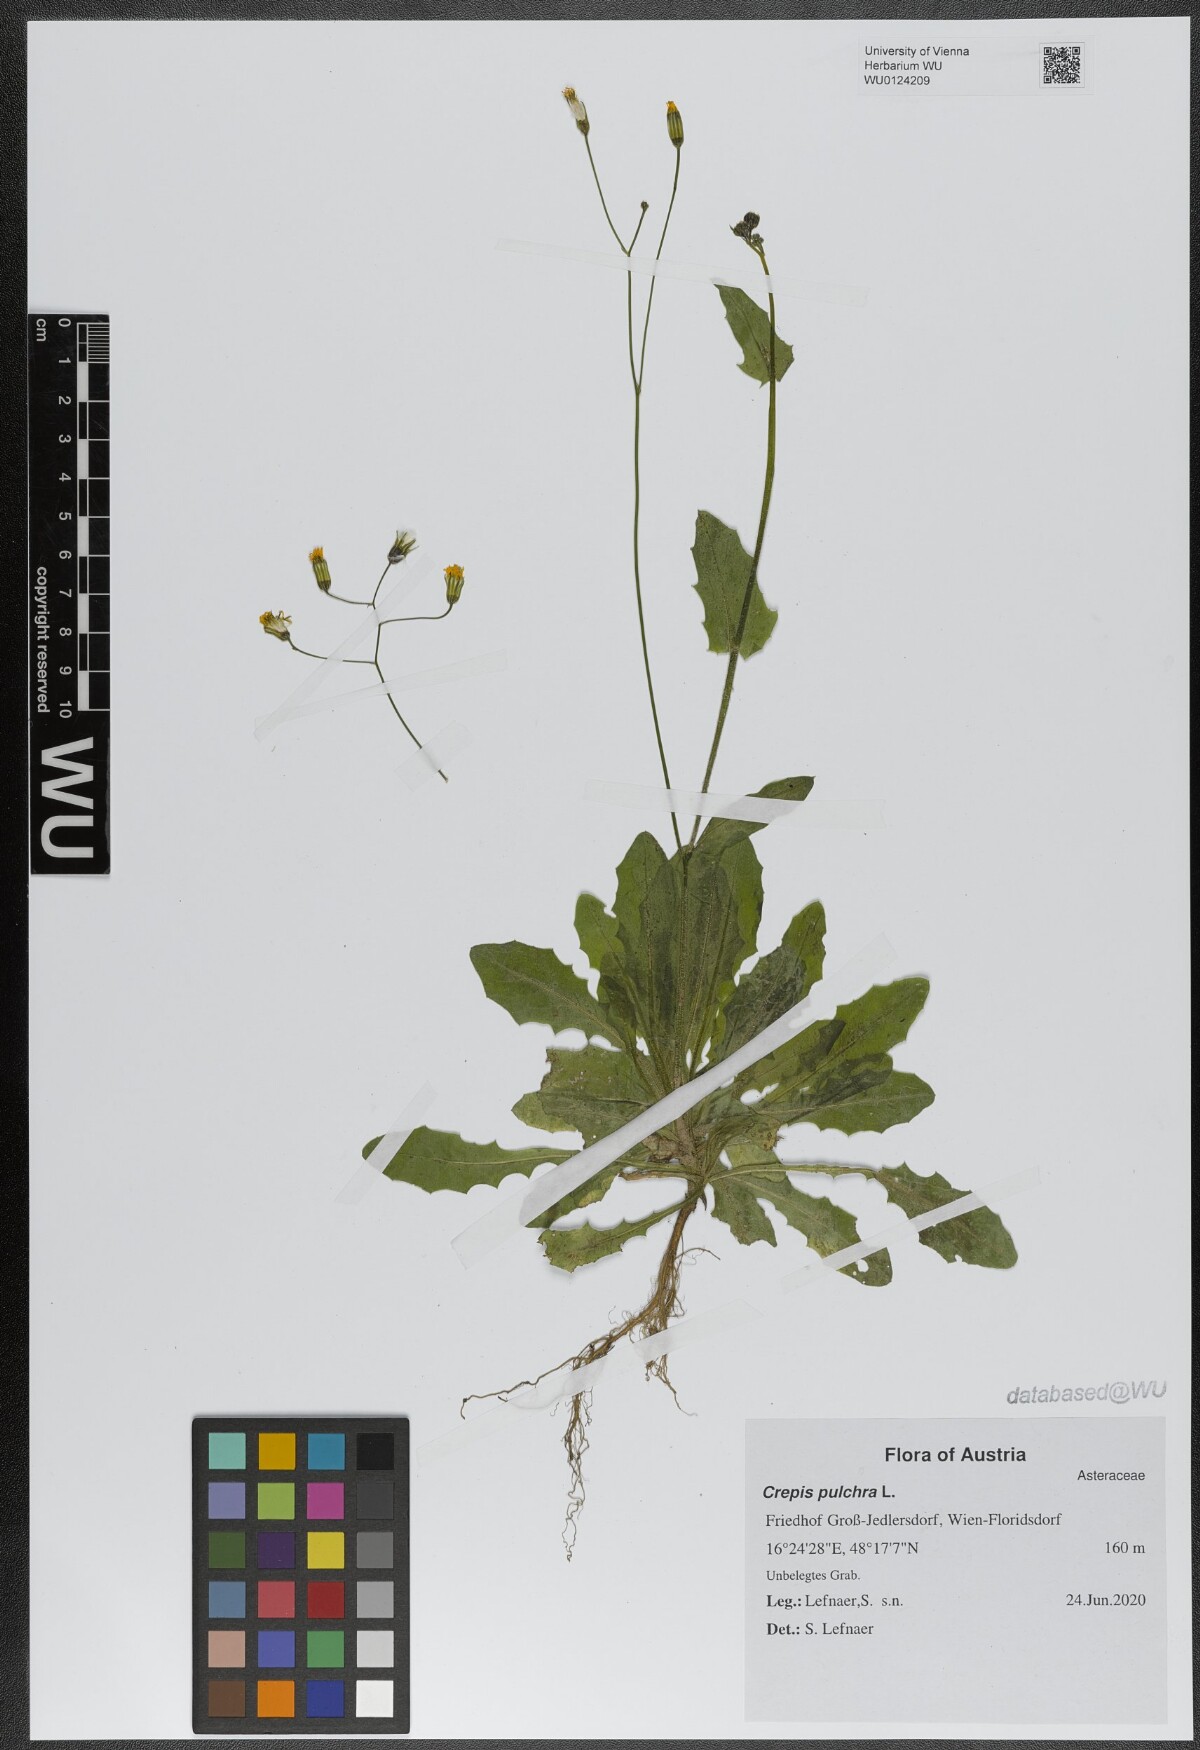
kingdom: Plantae
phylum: Tracheophyta
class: Magnoliopsida
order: Asterales
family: Asteraceae
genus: Crepis
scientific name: Crepis pulchra
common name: Hawk's-beard
